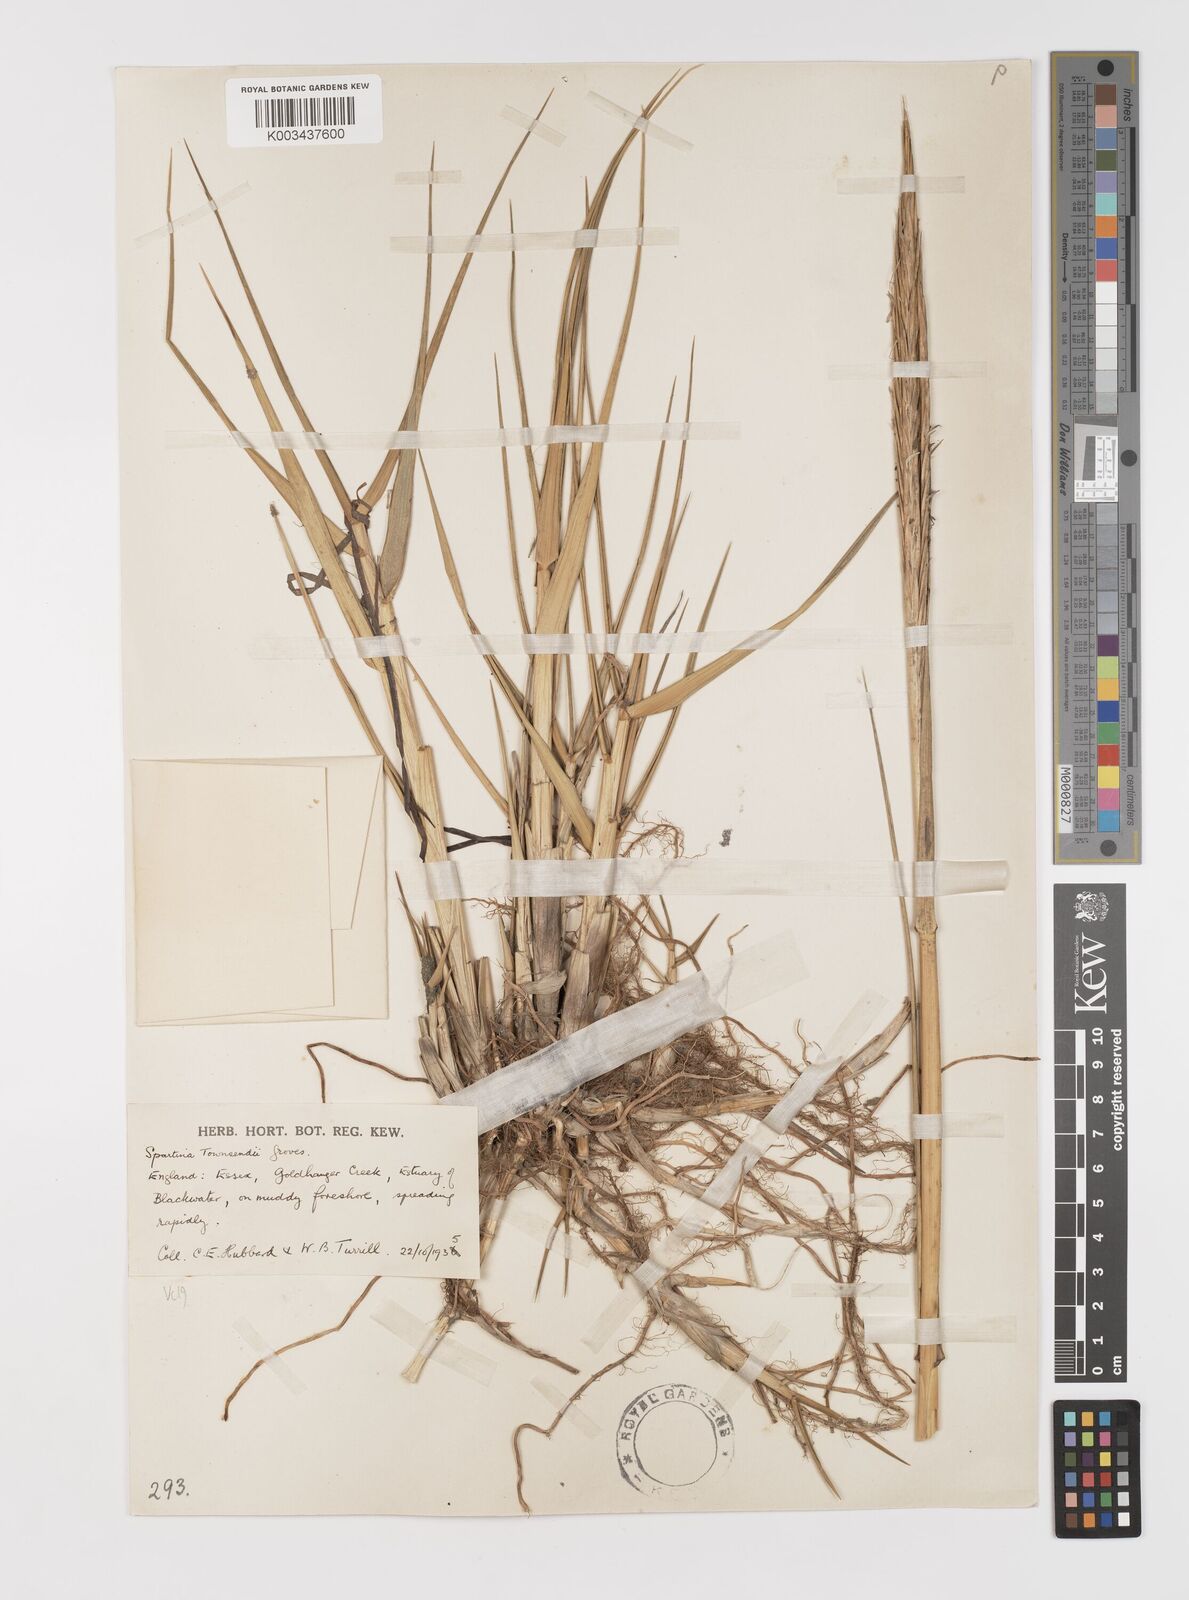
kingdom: Plantae
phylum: Tracheophyta
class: Liliopsida
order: Poales
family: Poaceae
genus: Sporobolus
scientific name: Sporobolus anglicus
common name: English cordgrass
